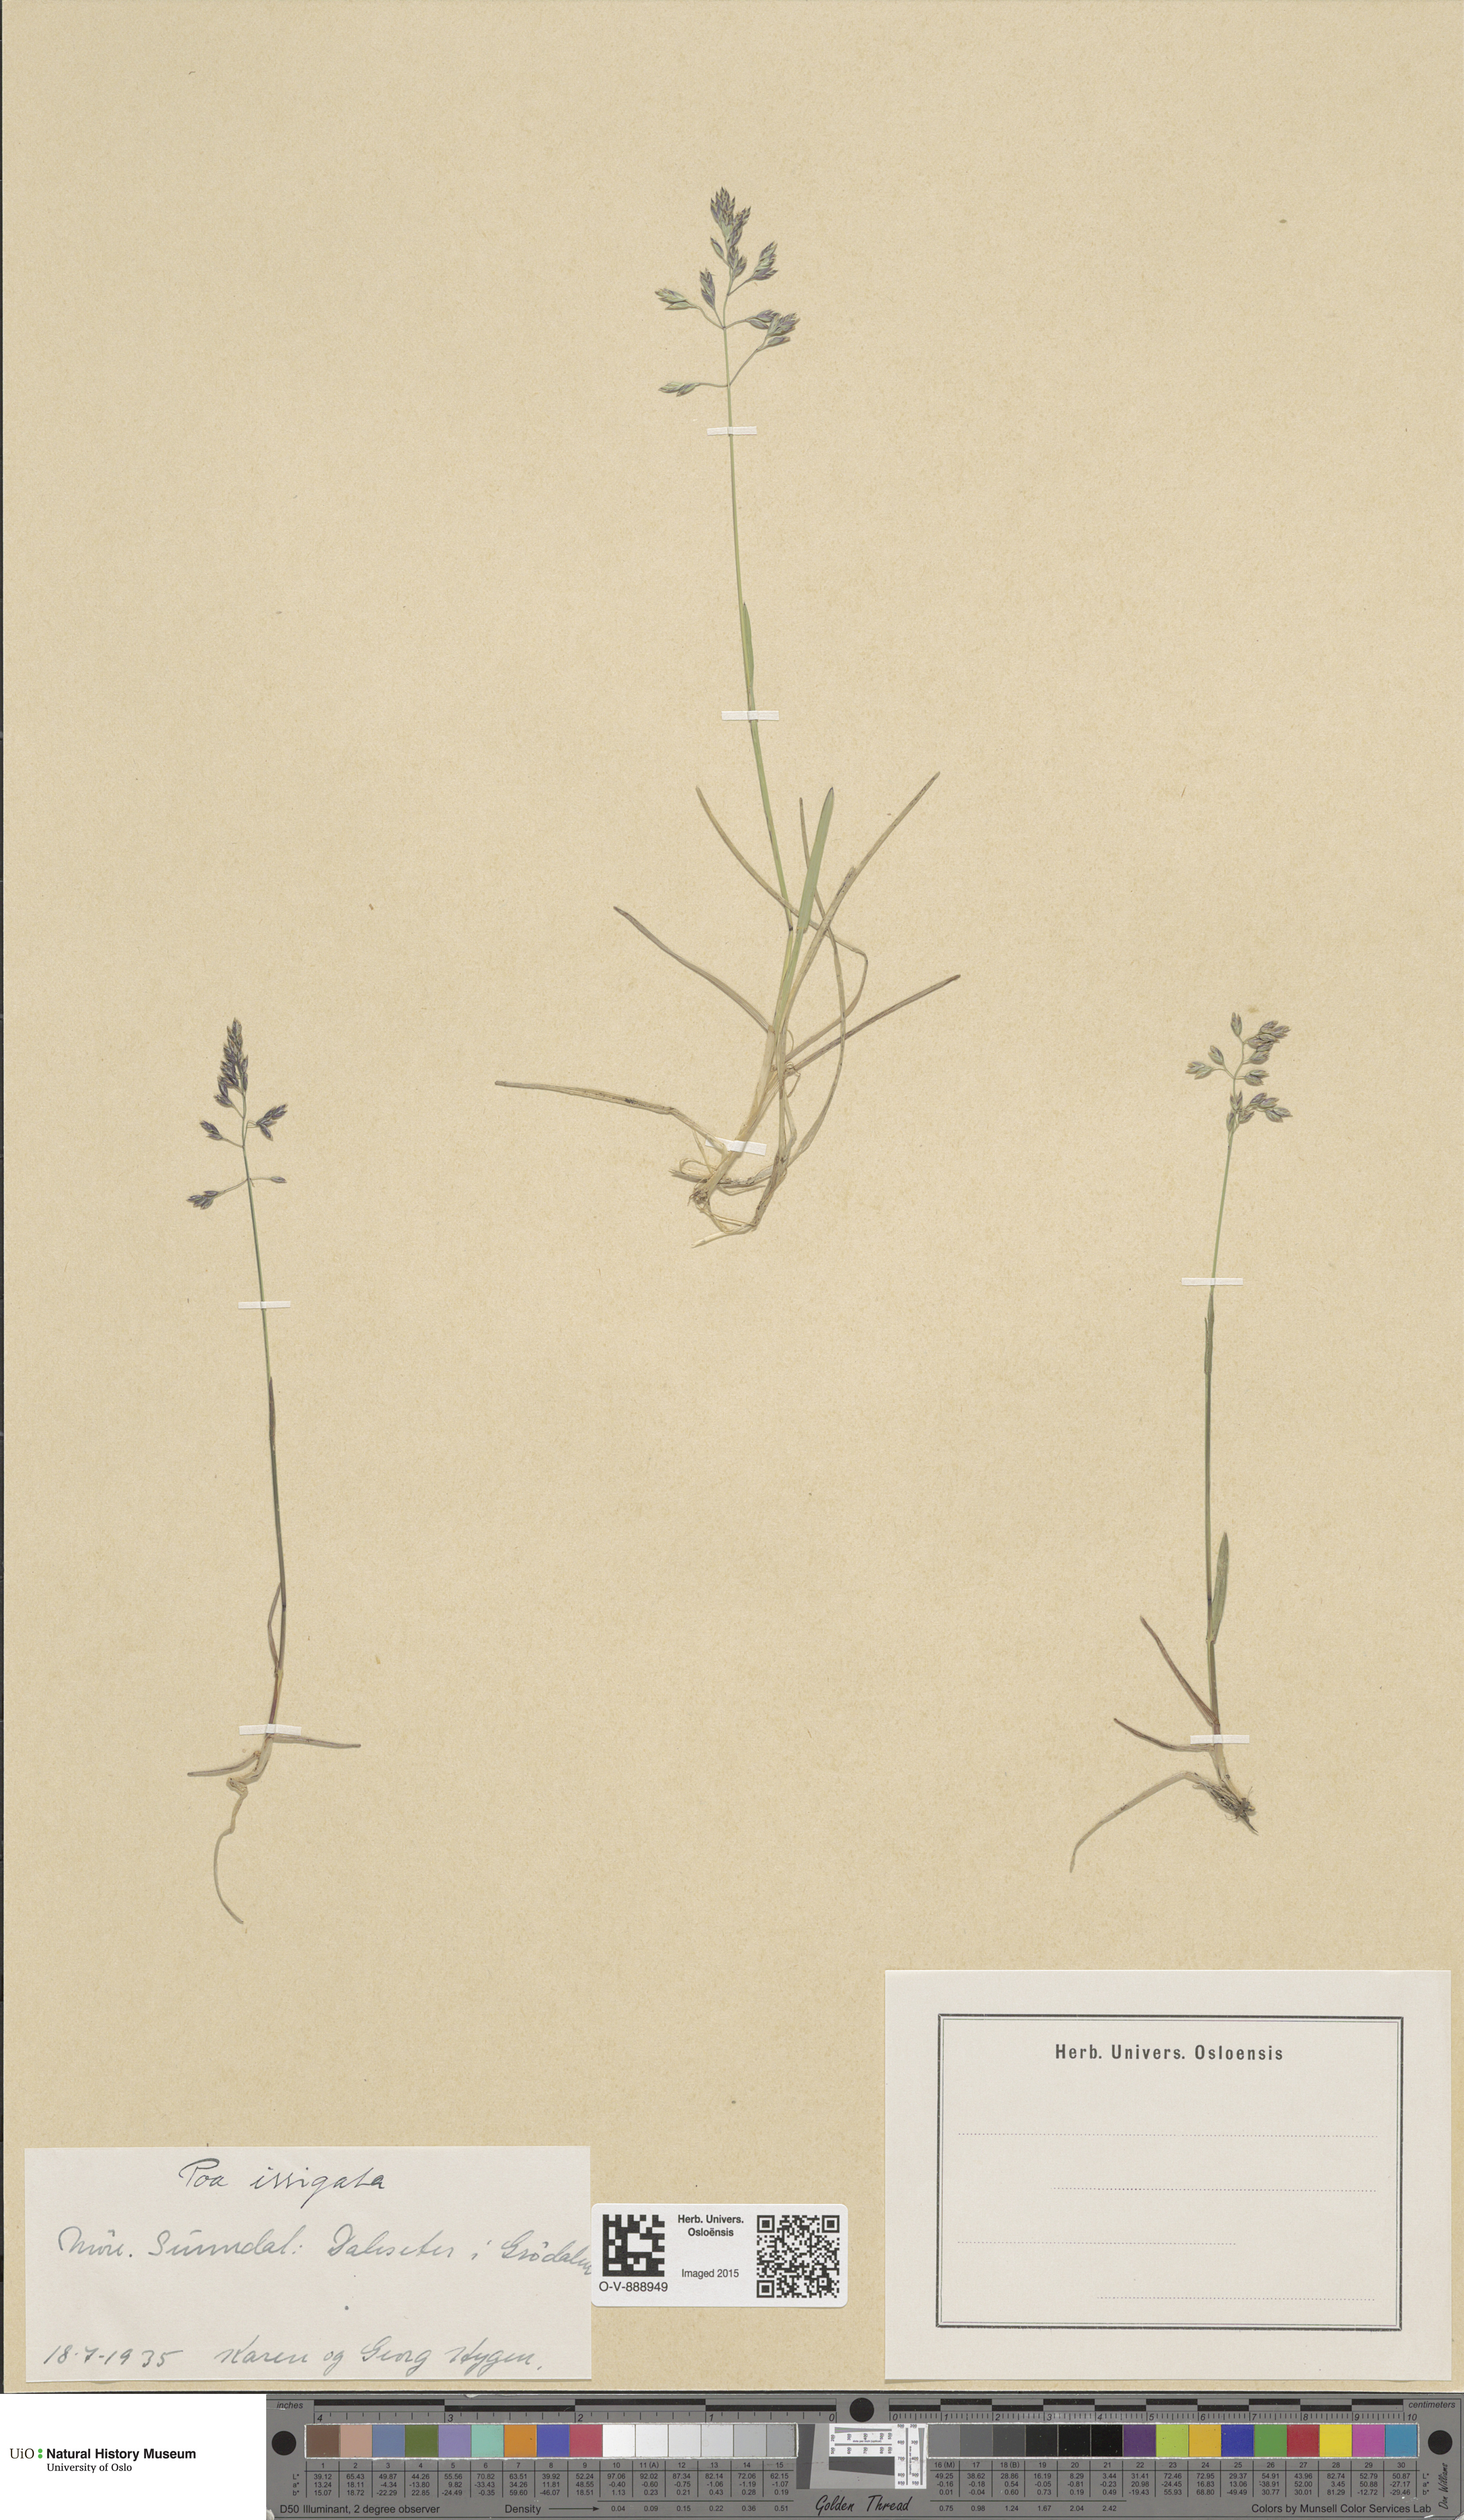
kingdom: Plantae
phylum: Tracheophyta
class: Liliopsida
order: Poales
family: Poaceae
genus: Poa
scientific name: Poa humilis
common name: Spreading meadow-grass
